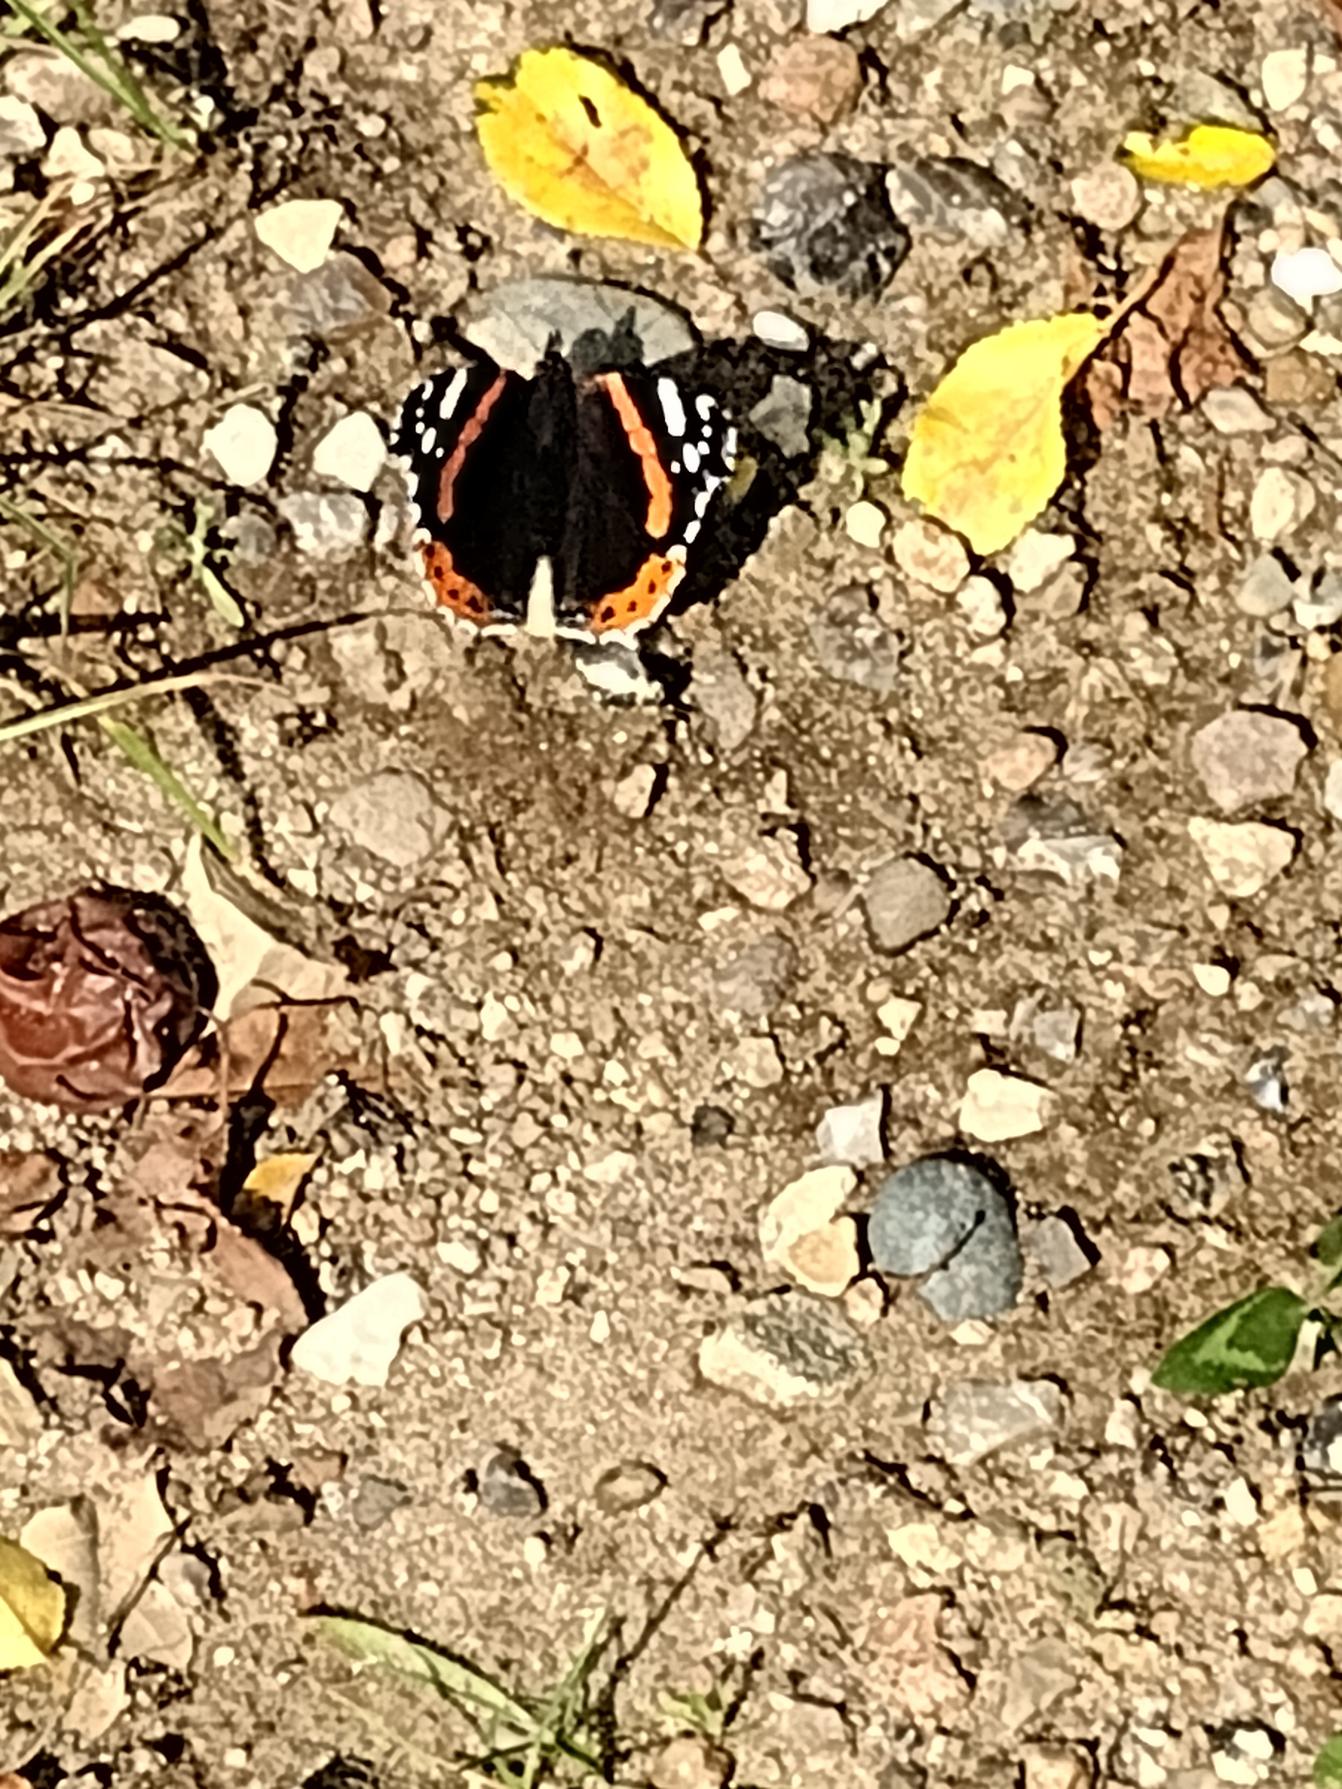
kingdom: Animalia
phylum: Arthropoda
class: Insecta
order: Lepidoptera
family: Nymphalidae
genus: Vanessa
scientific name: Vanessa atalanta
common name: Admiral
